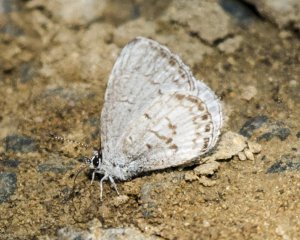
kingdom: Animalia
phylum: Arthropoda
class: Insecta
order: Lepidoptera
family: Lycaenidae
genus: Cyaniris
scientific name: Cyaniris neglecta
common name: Summer Azure
